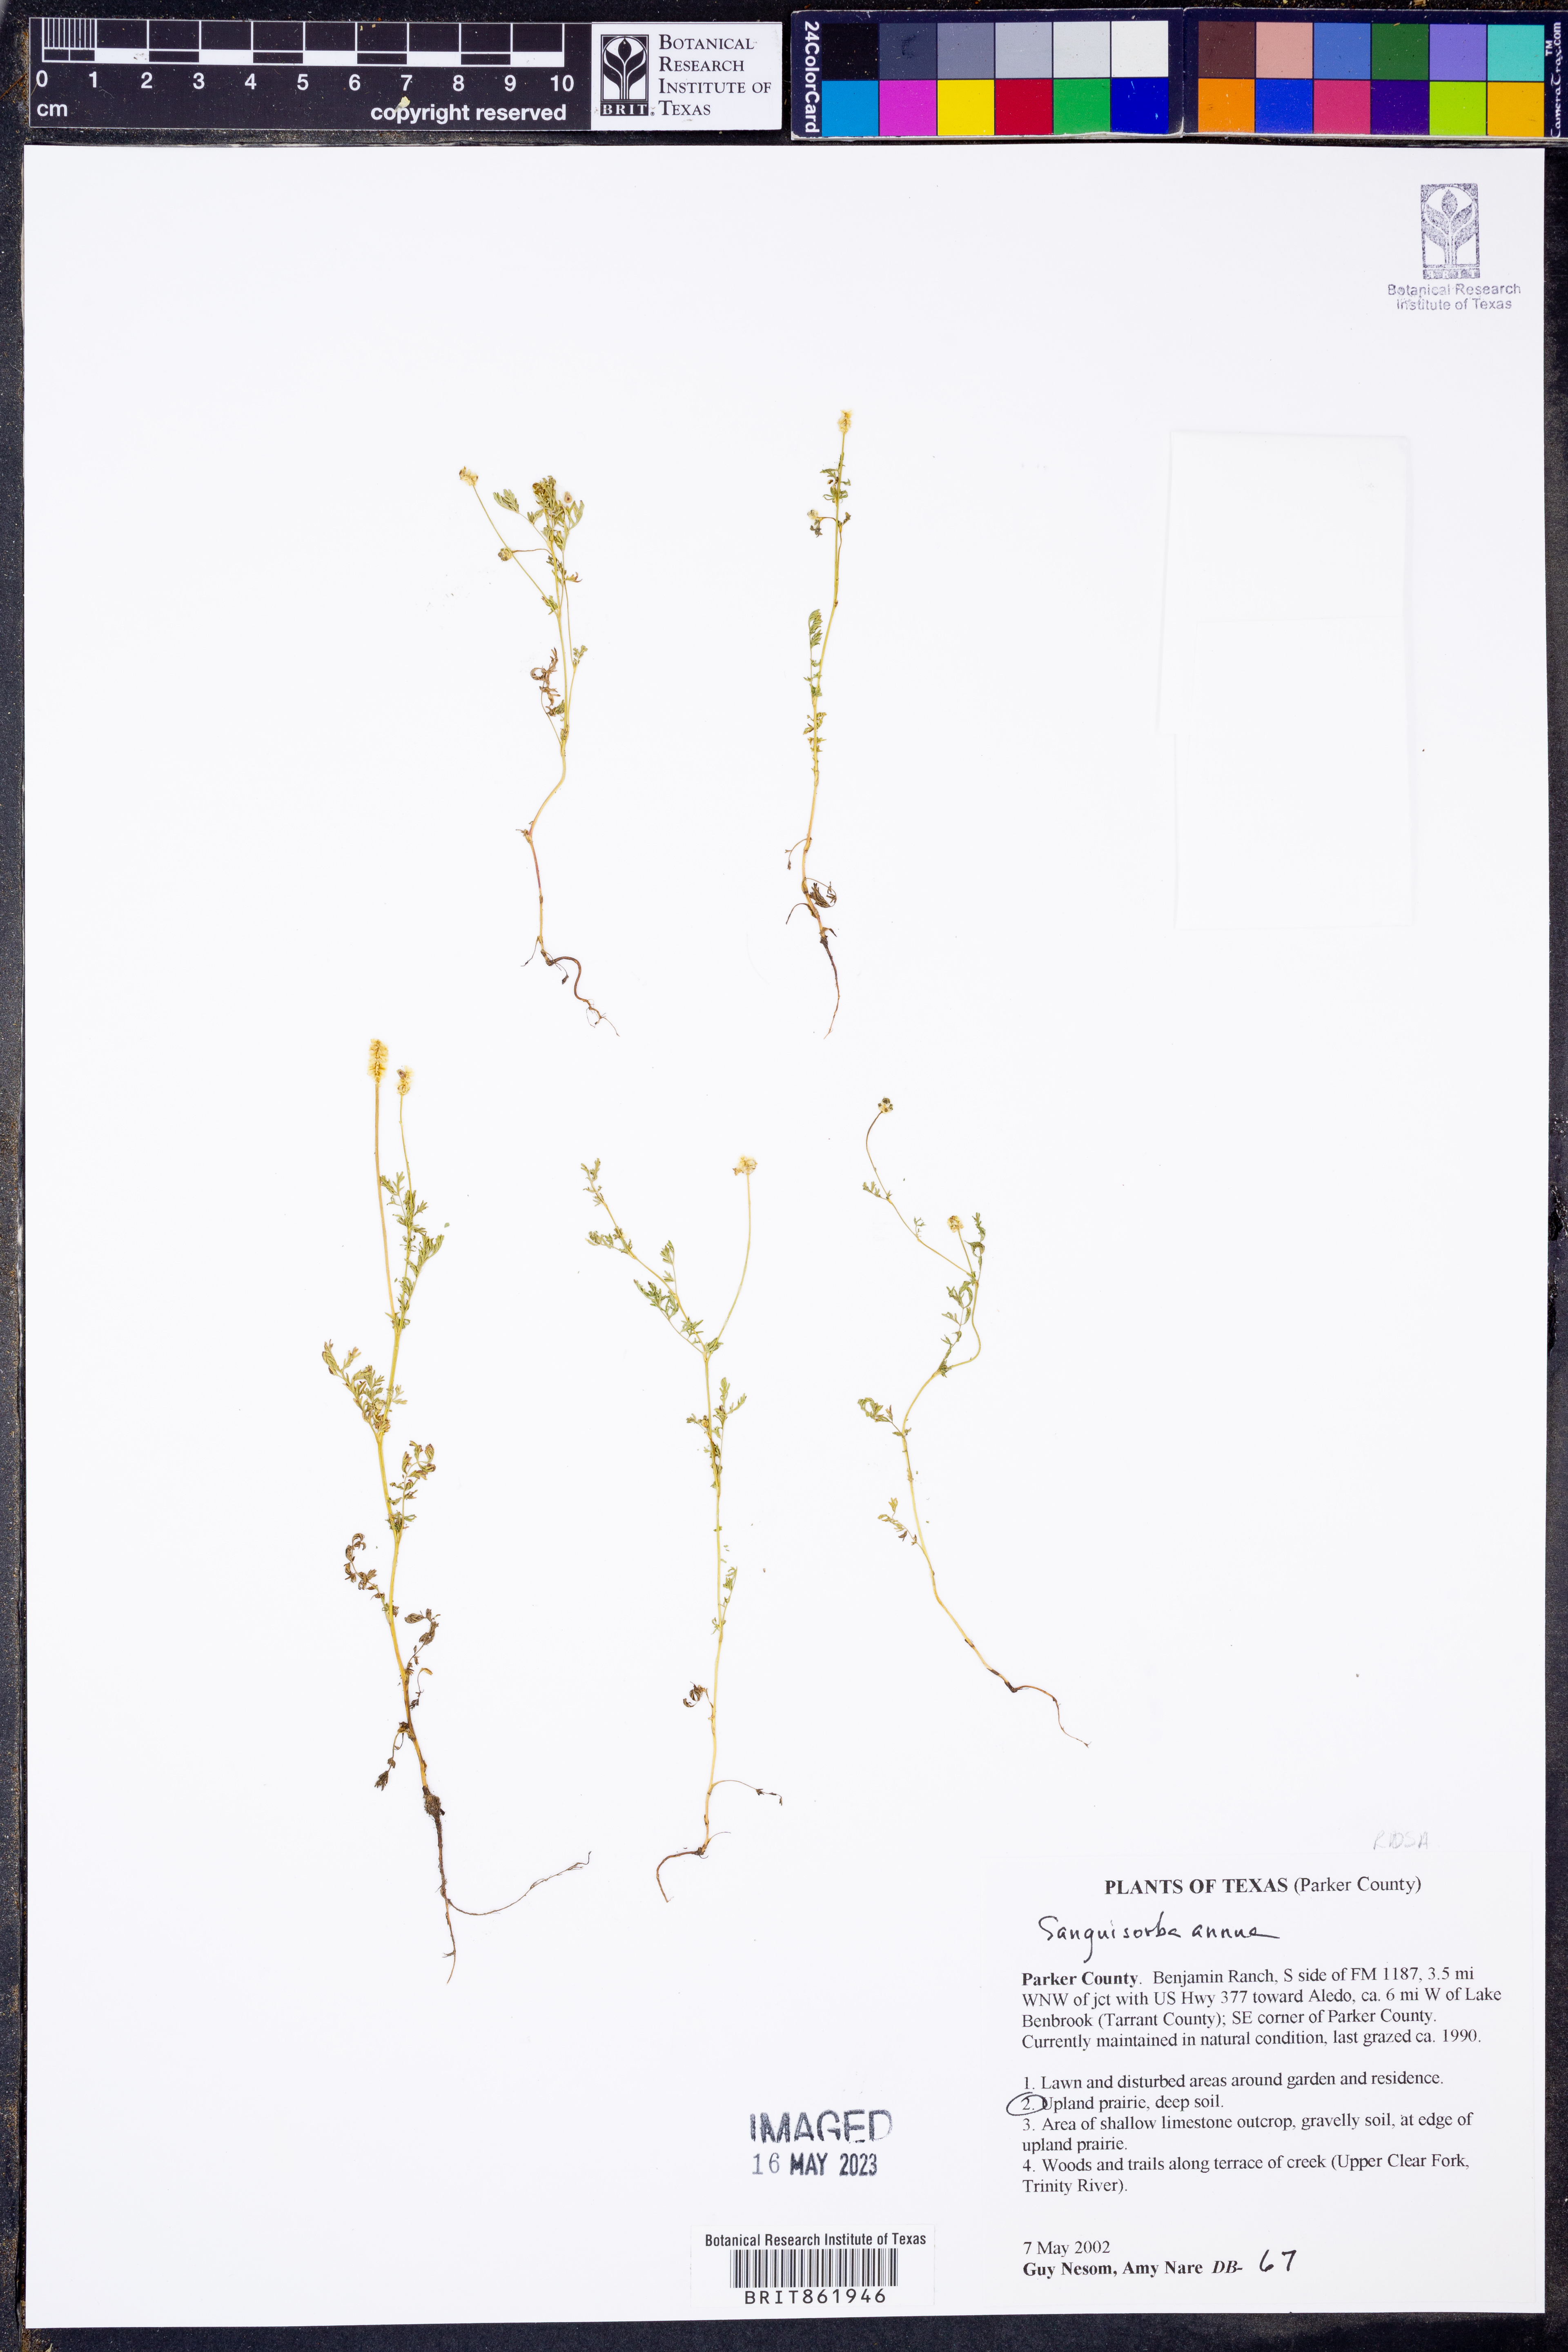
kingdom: Plantae
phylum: Tracheophyta
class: Magnoliopsida
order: Rosales
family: Rosaceae
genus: Poteridium
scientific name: Poteridium annuum
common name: Annual burnet
